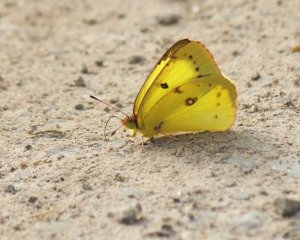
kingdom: Animalia
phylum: Arthropoda
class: Insecta
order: Lepidoptera
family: Pieridae
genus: Colias
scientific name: Colias philodice
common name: Clouded Sulphur
